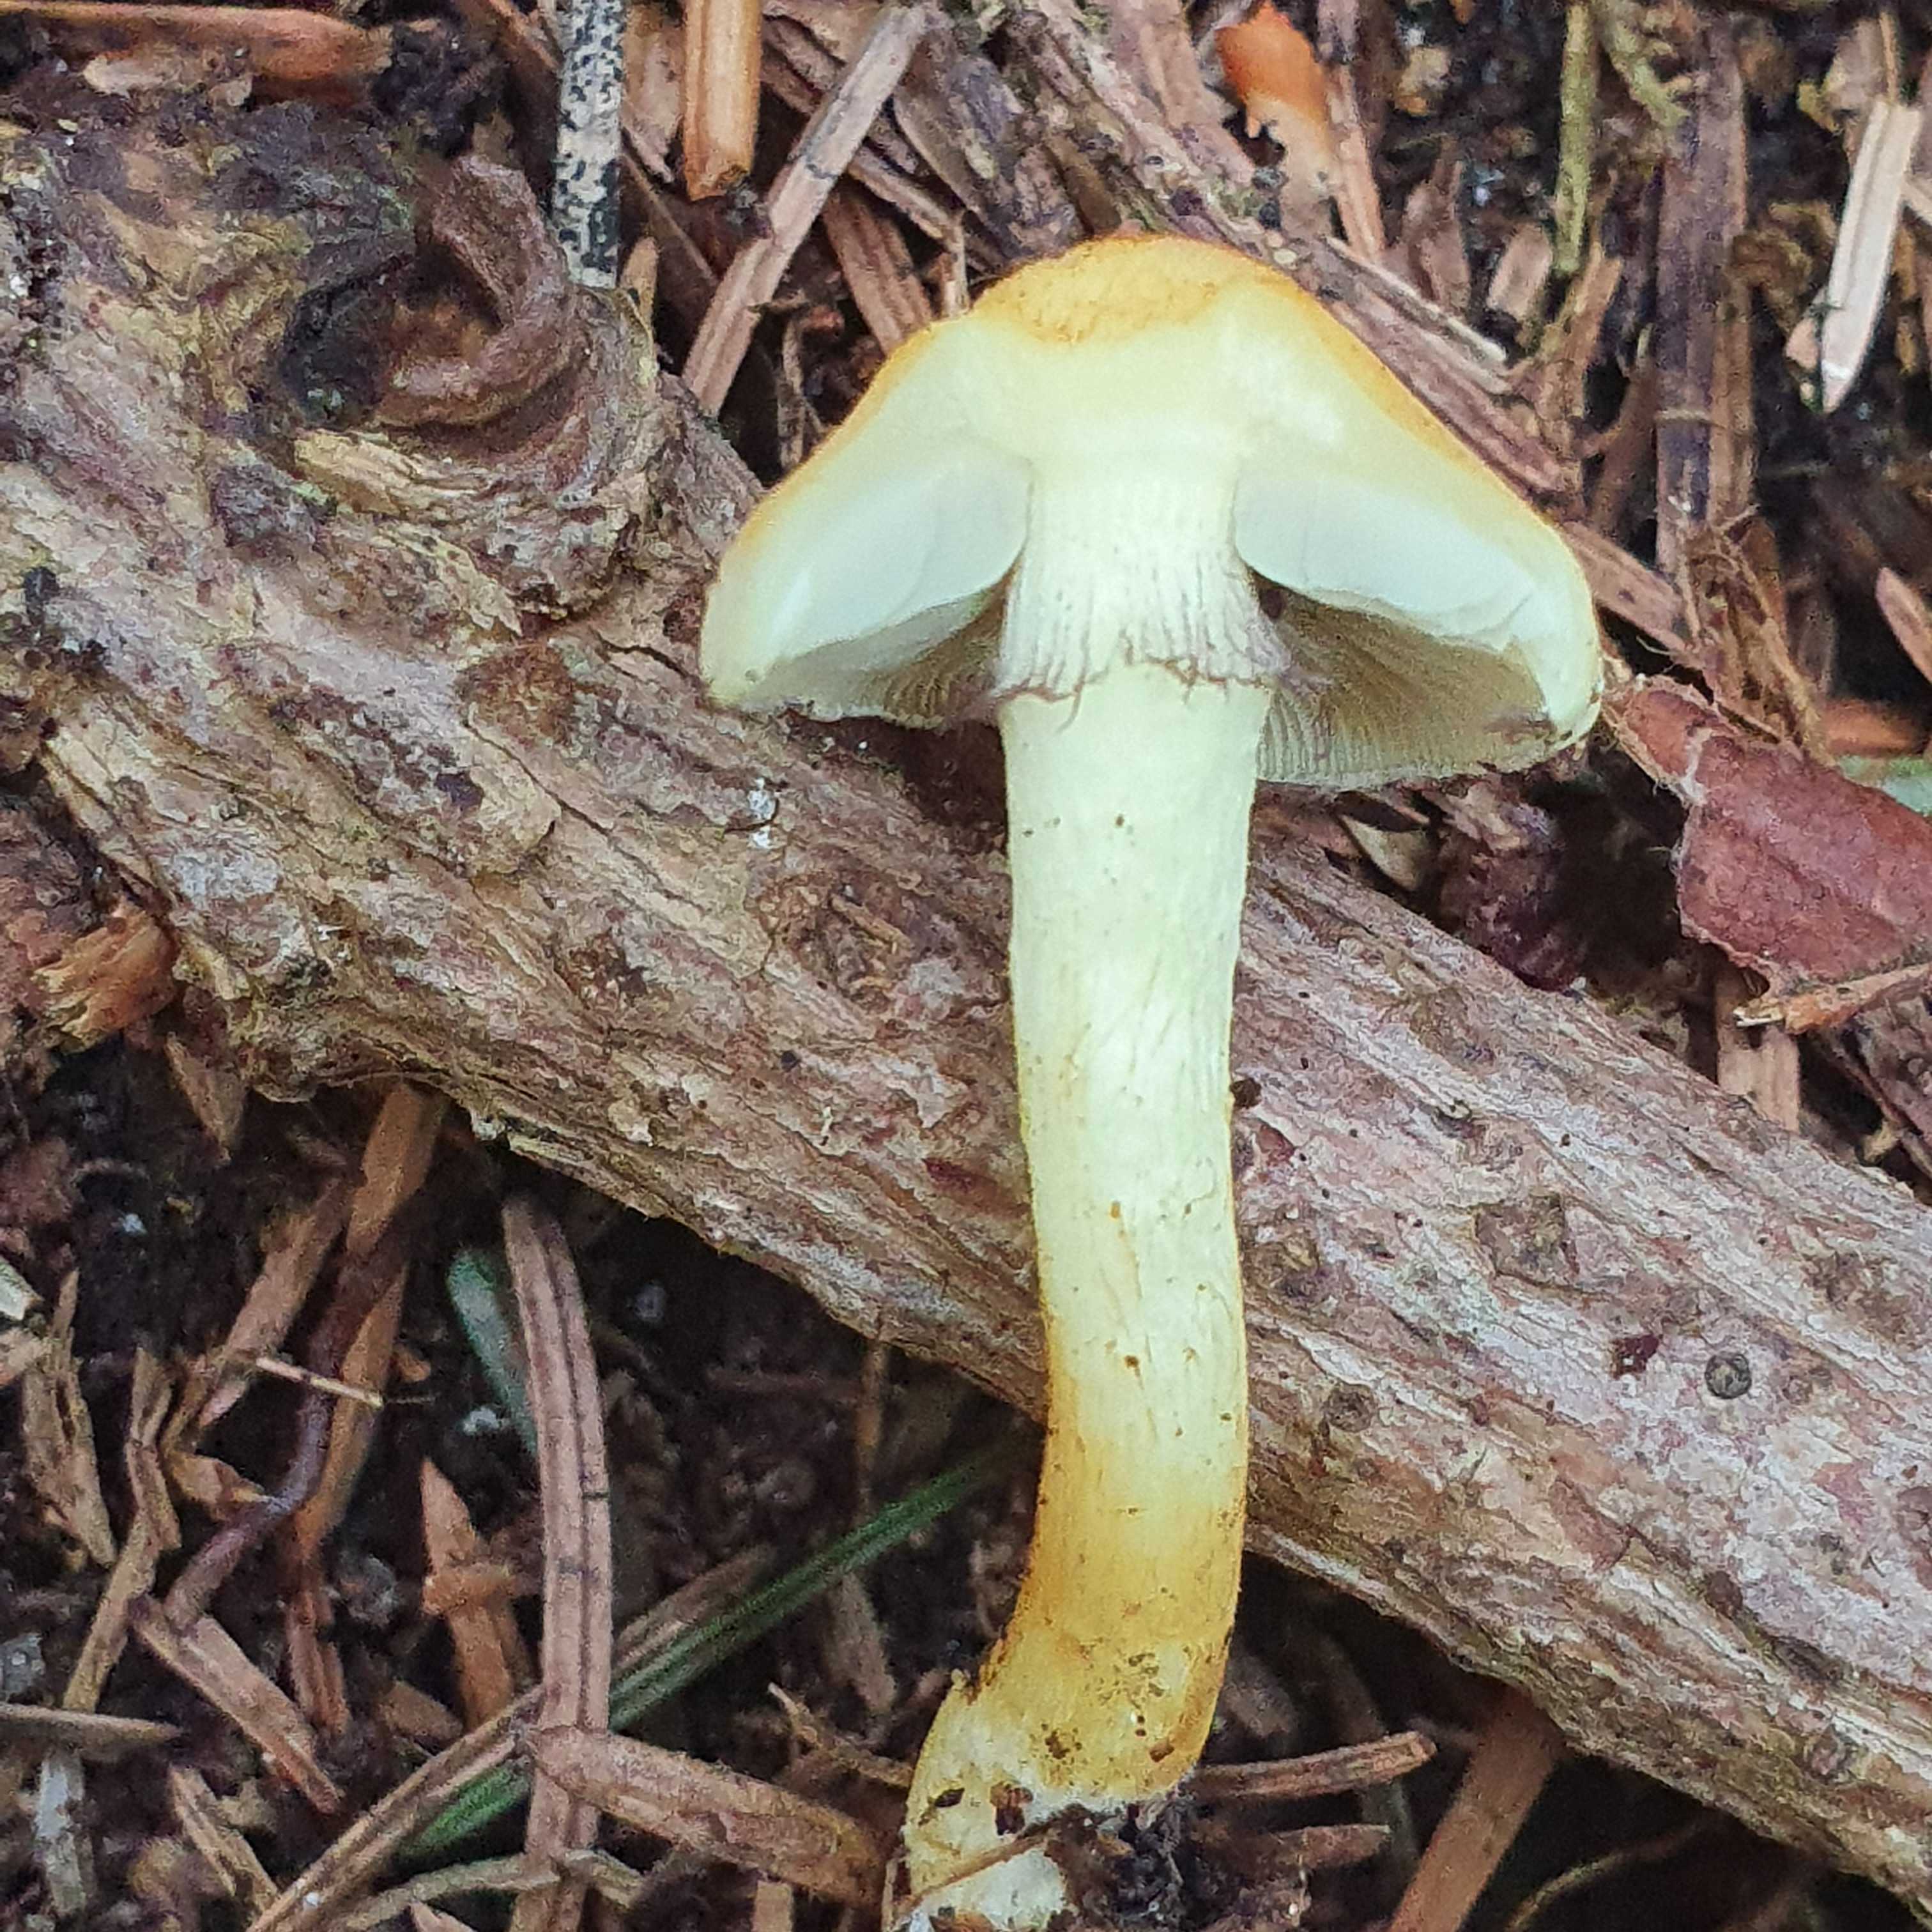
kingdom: Fungi
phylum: Basidiomycota
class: Agaricomycetes
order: Agaricales
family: Strophariaceae
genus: Hypholoma
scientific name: Hypholoma fasciculare
